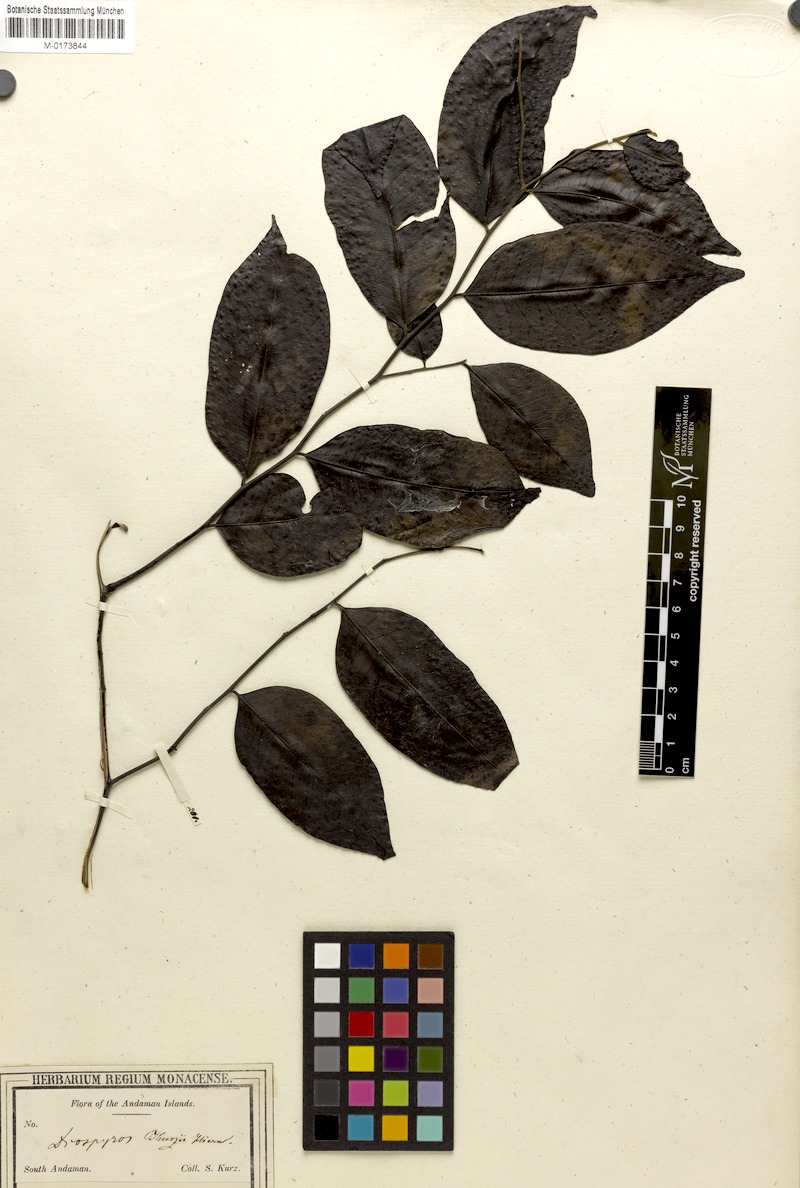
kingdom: Plantae
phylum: Tracheophyta
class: Magnoliopsida
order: Ericales
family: Ebenaceae
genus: Diospyros
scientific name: Diospyros kurzii
